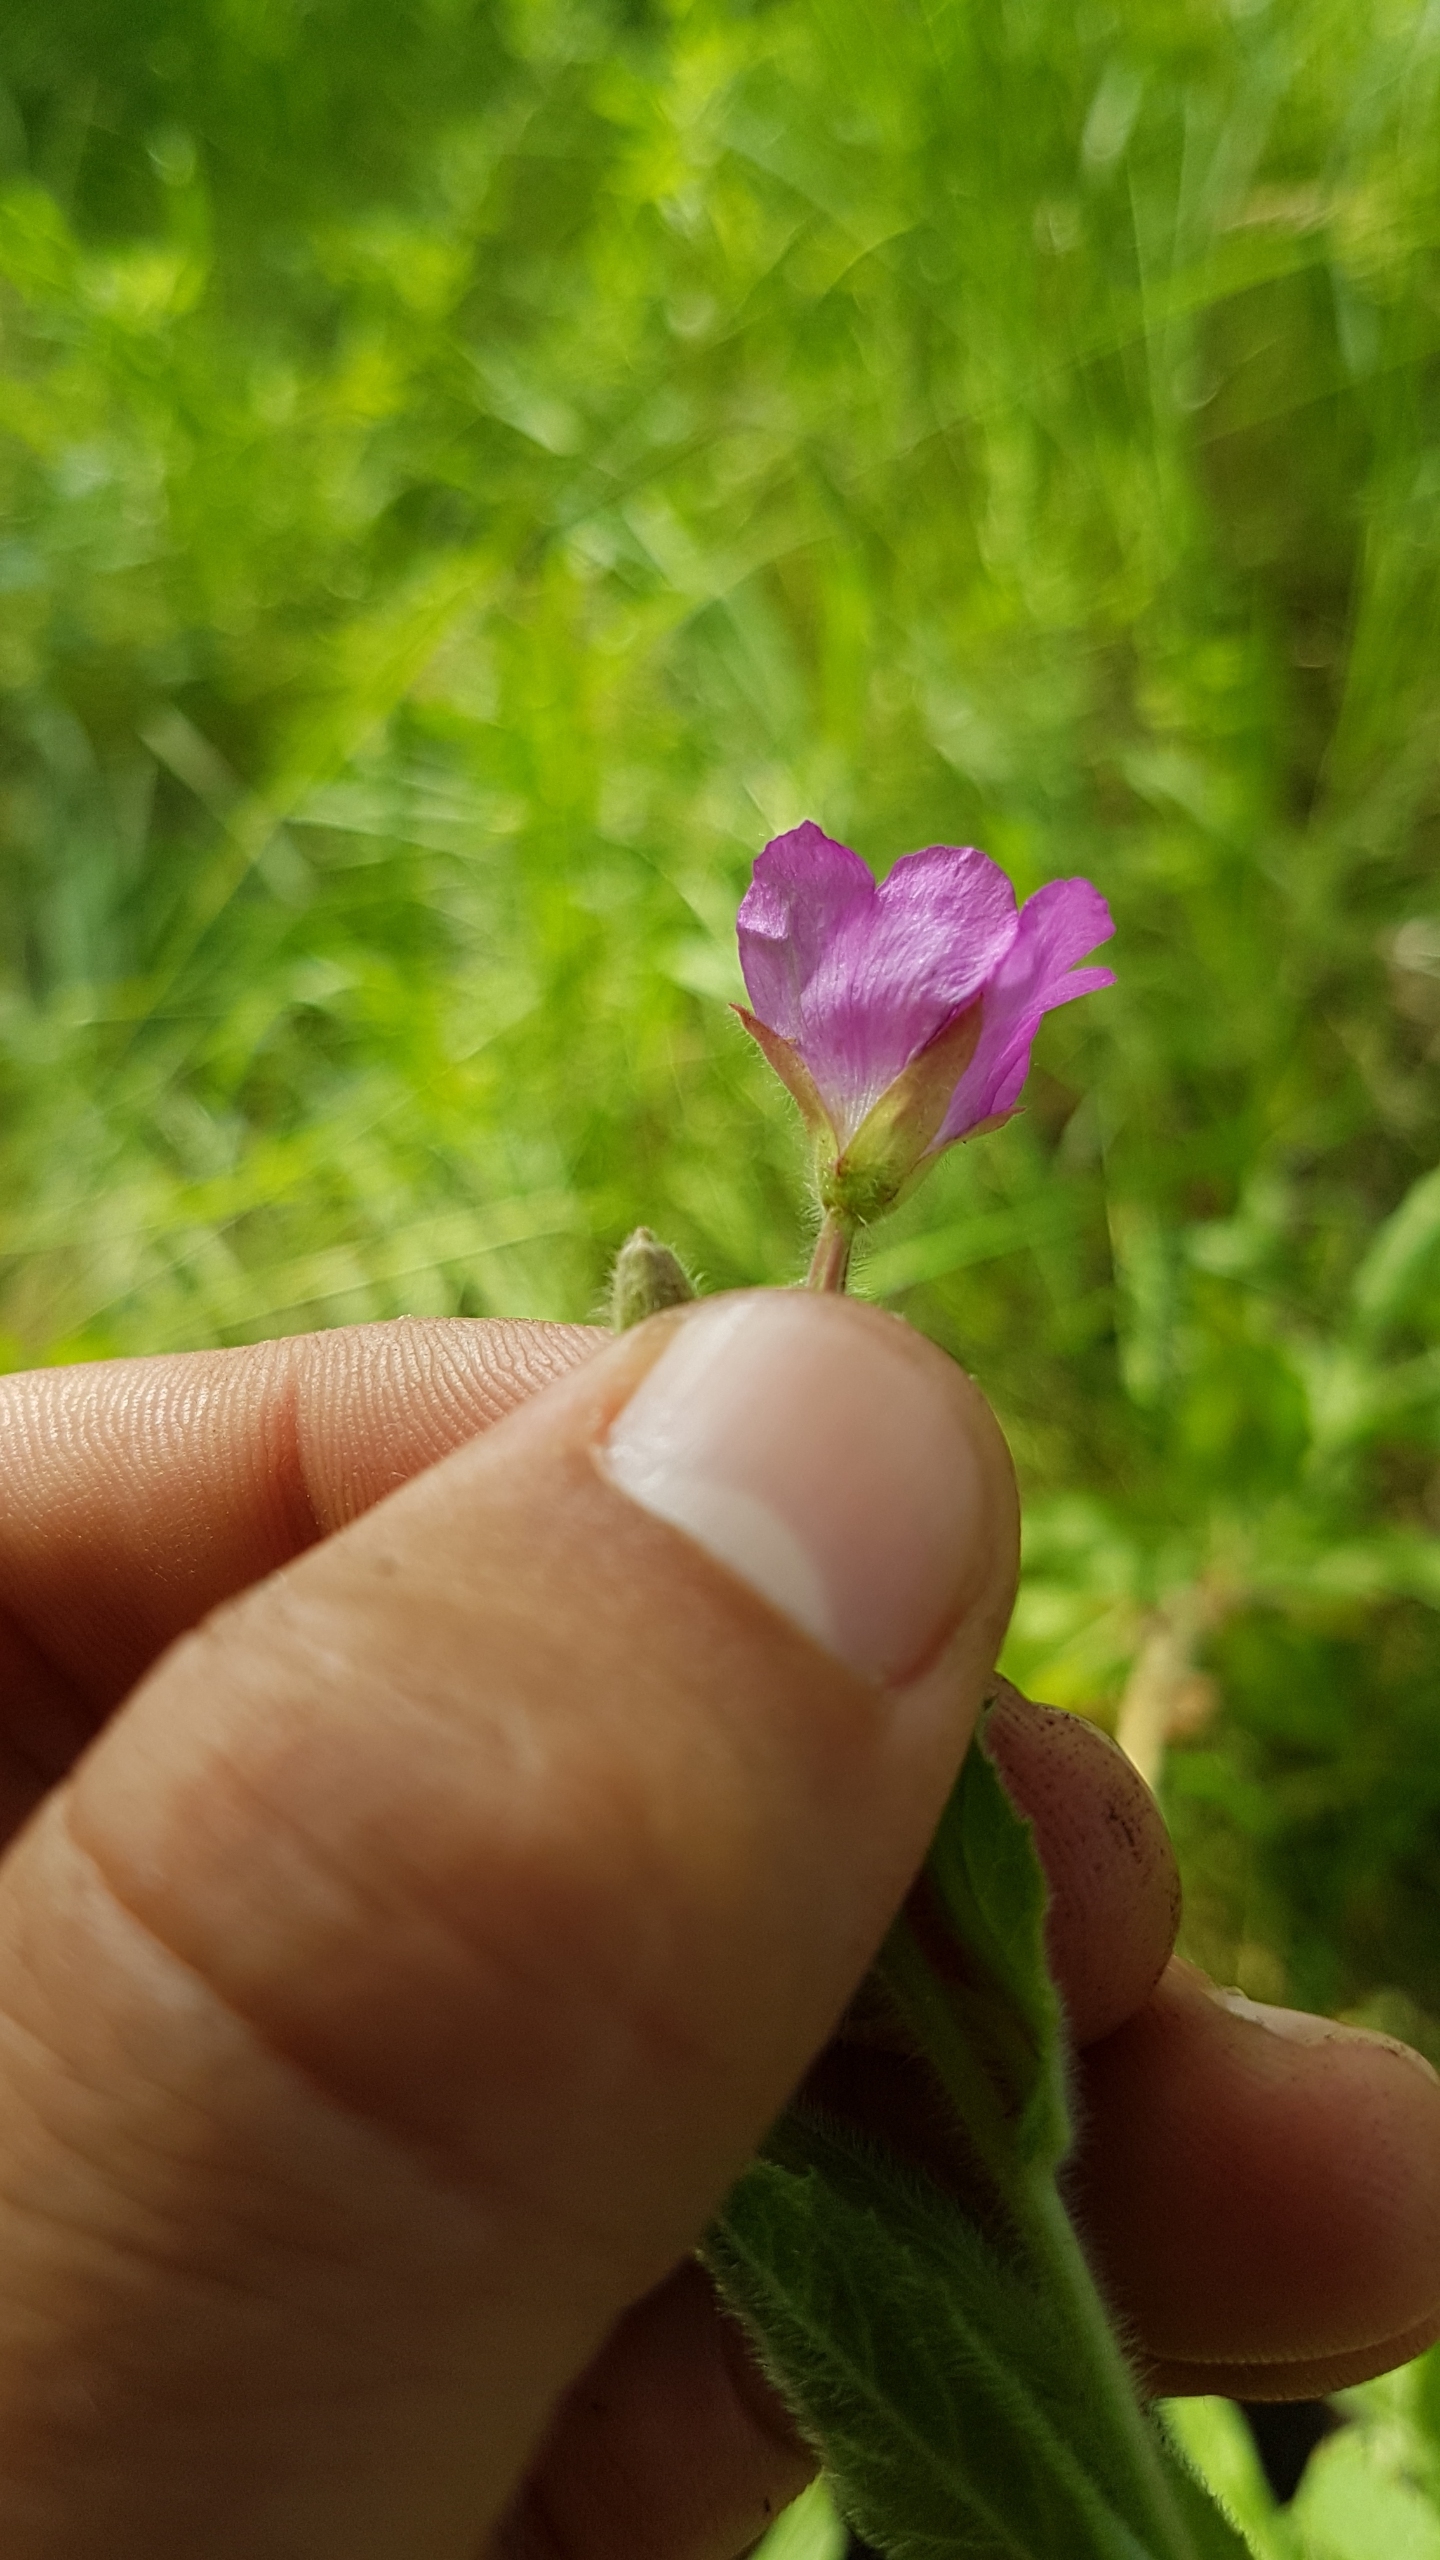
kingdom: Plantae
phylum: Tracheophyta
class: Magnoliopsida
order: Myrtales
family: Onagraceae
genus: Epilobium
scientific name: Epilobium hirsutum
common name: Lådden dueurt
